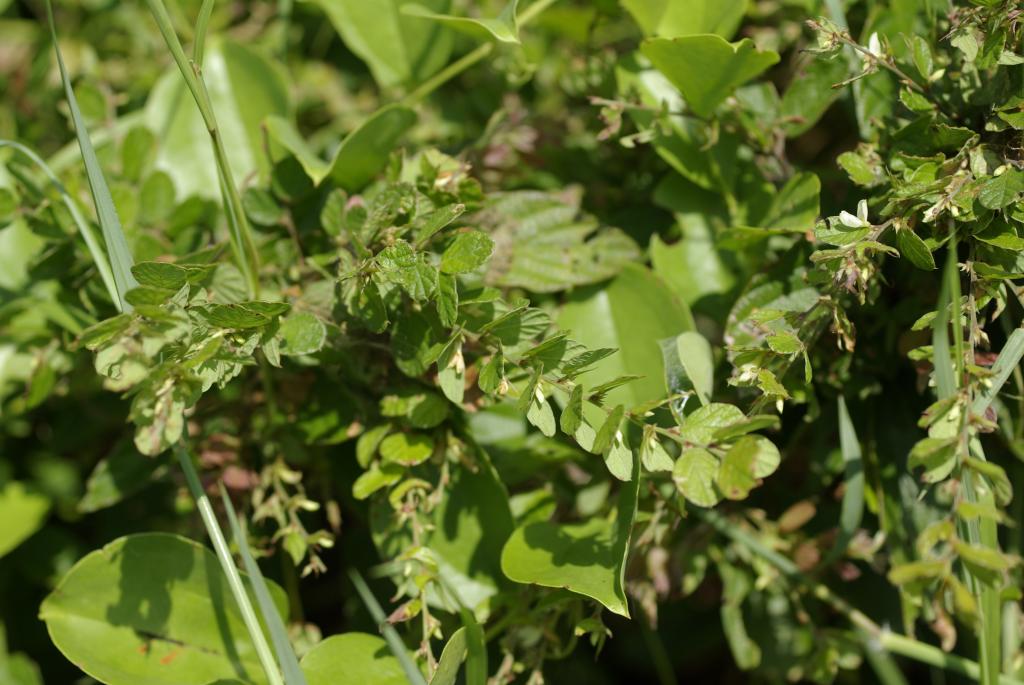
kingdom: Plantae
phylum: Tracheophyta
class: Magnoliopsida
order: Fabales
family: Fabaceae
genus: Phyllodium
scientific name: Phyllodium pulchellum
